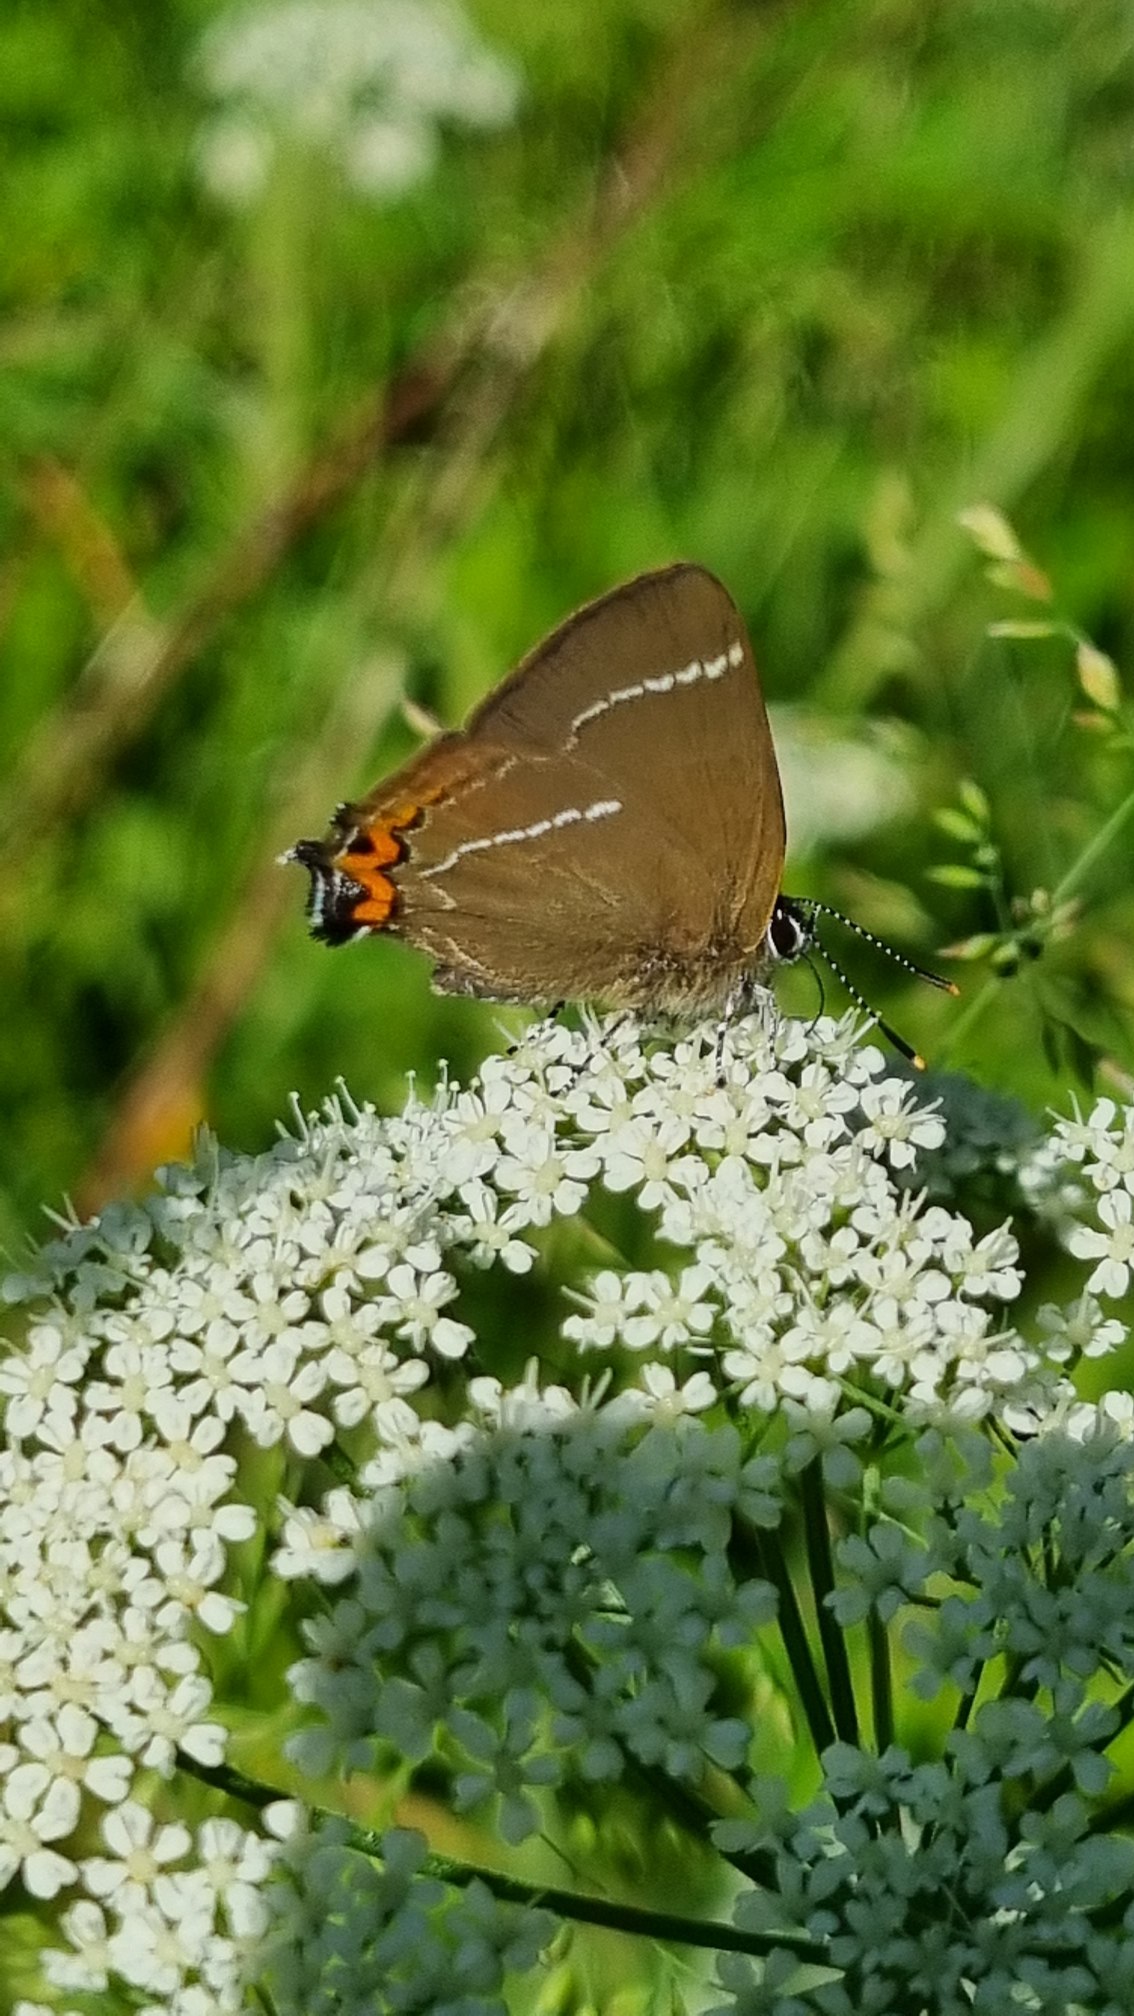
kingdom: Animalia
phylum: Arthropoda
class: Insecta
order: Lepidoptera
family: Lycaenidae
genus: Satyrium
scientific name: Satyrium w-album
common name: Det hvide W
